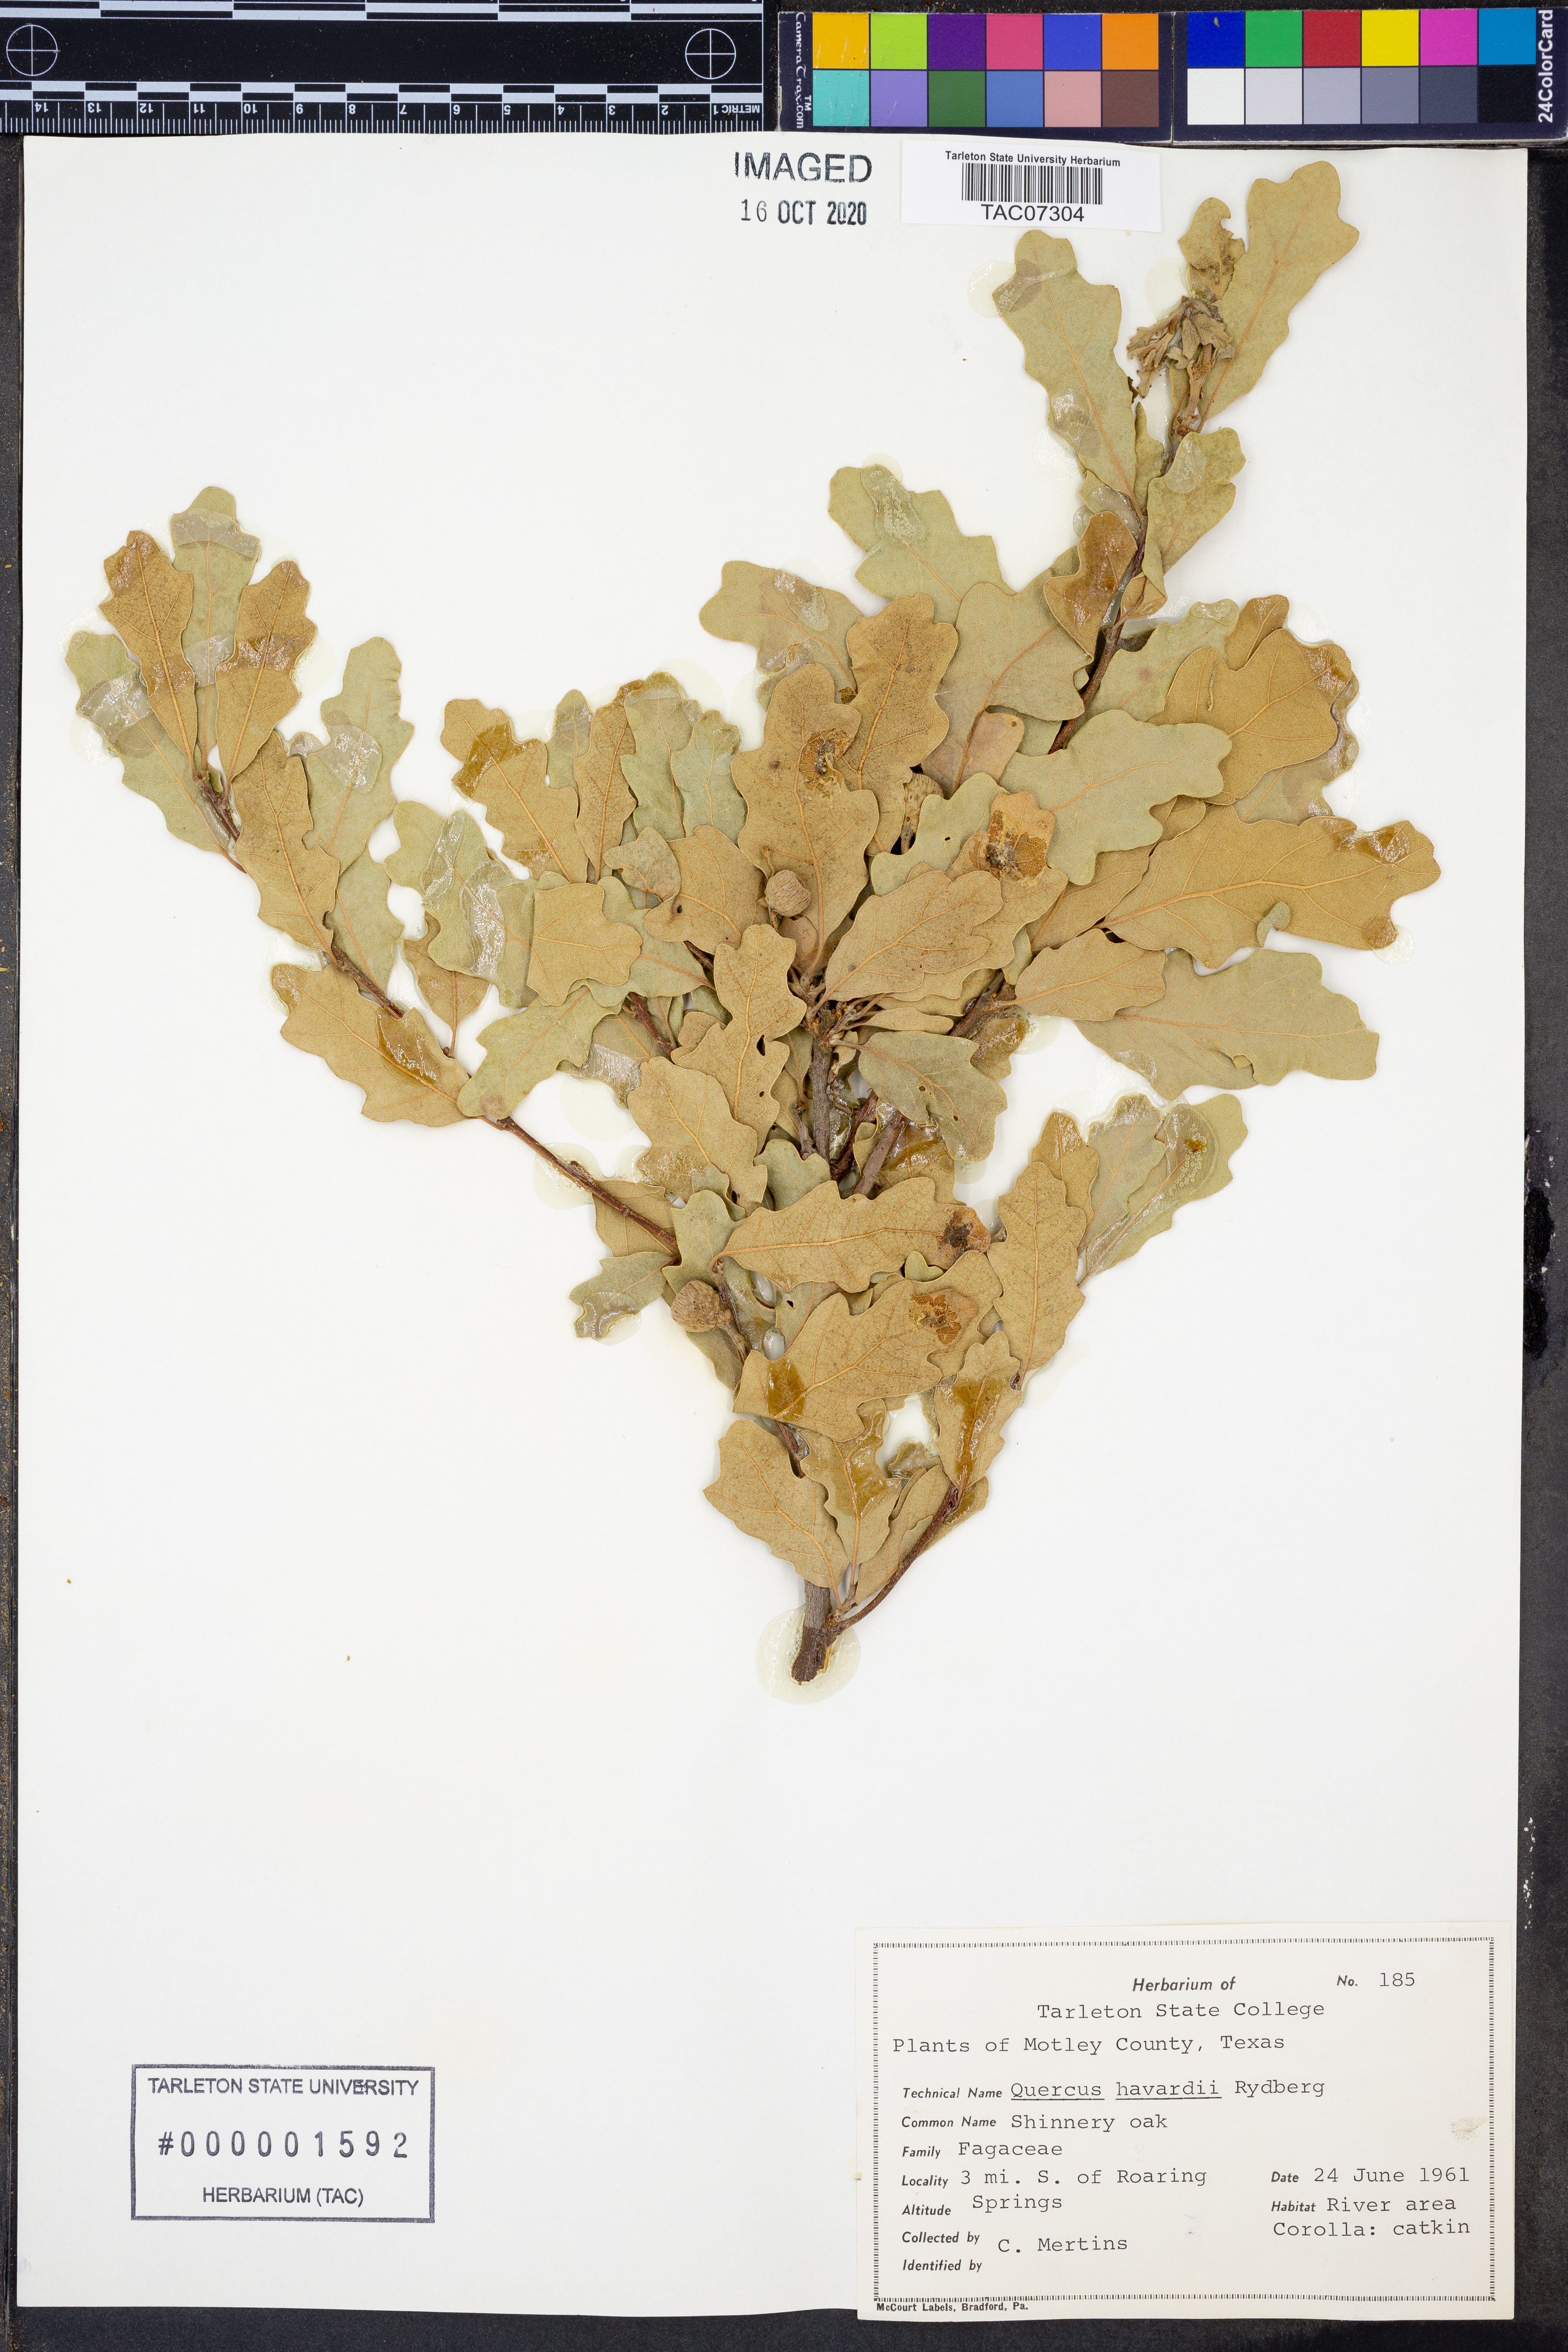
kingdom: Plantae
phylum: Tracheophyta
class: Magnoliopsida
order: Fagales
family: Fagaceae
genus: Quercus
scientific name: Quercus havardii
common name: Shinnery oak
